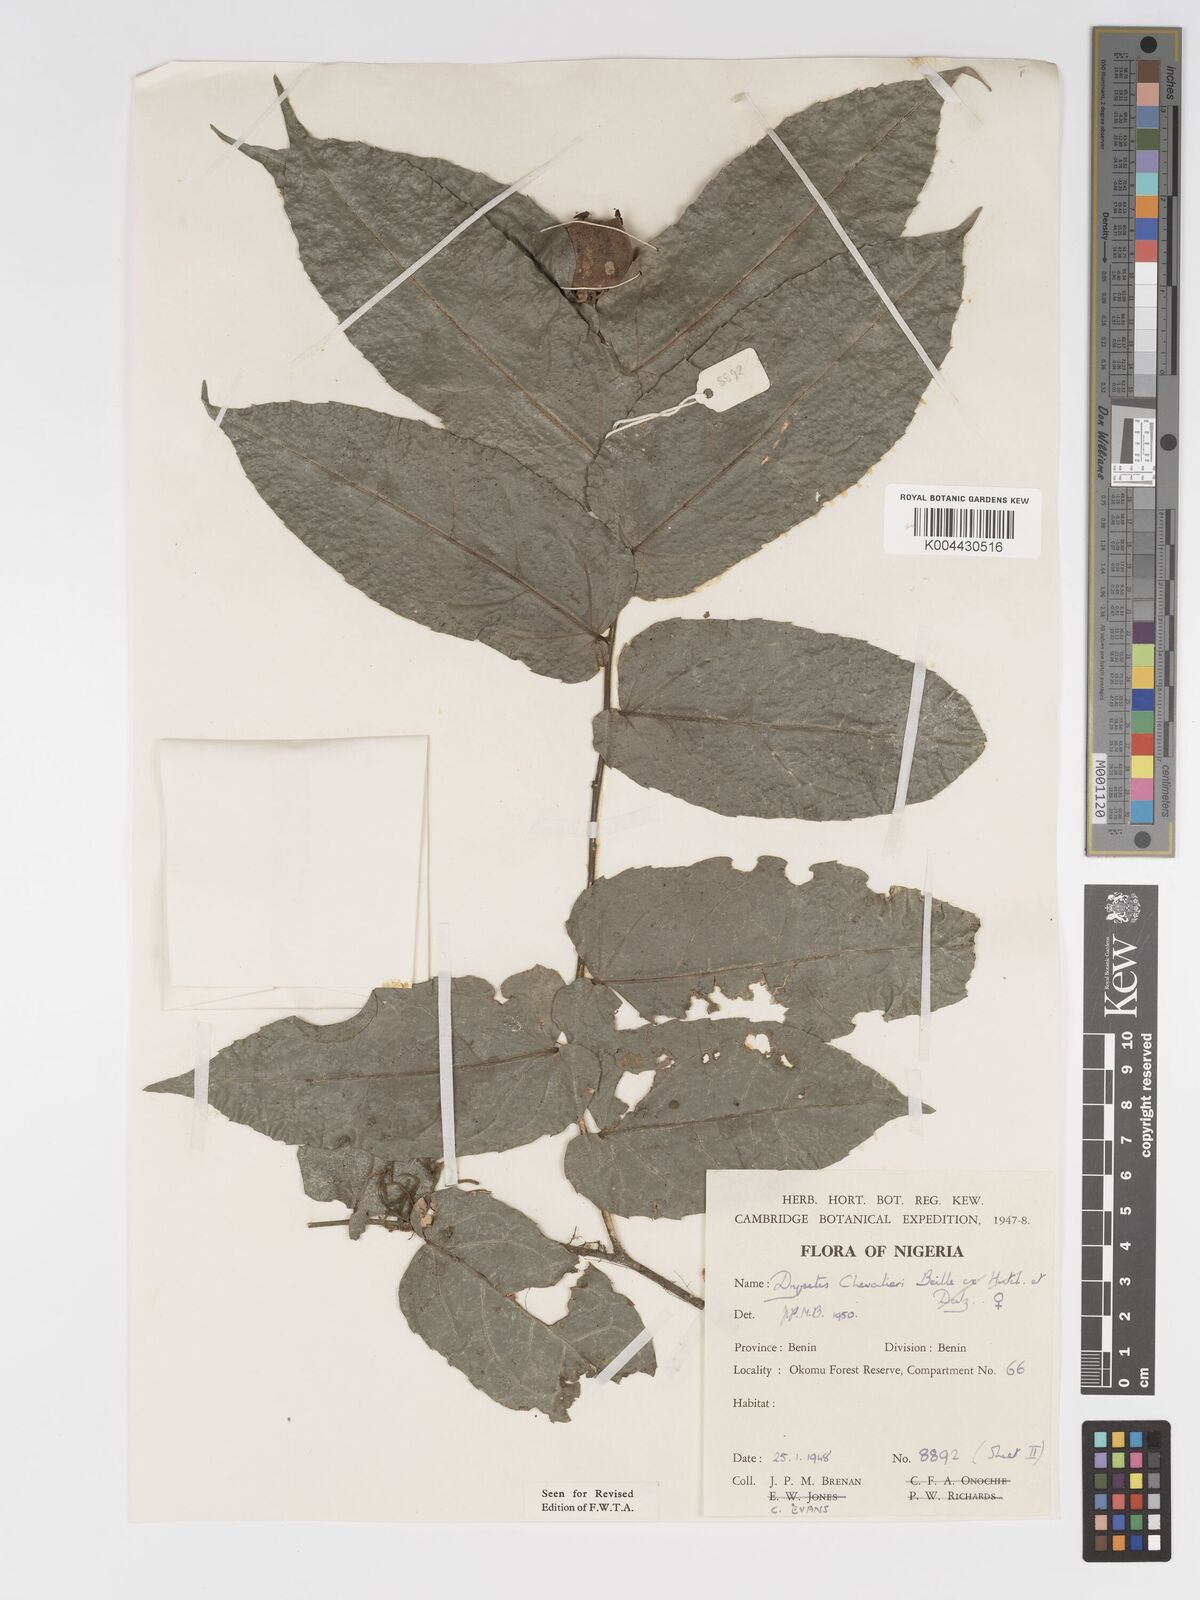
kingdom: Plantae
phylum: Tracheophyta
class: Magnoliopsida
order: Malpighiales
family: Putranjivaceae
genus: Drypetes
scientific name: Drypetes chevalieri
